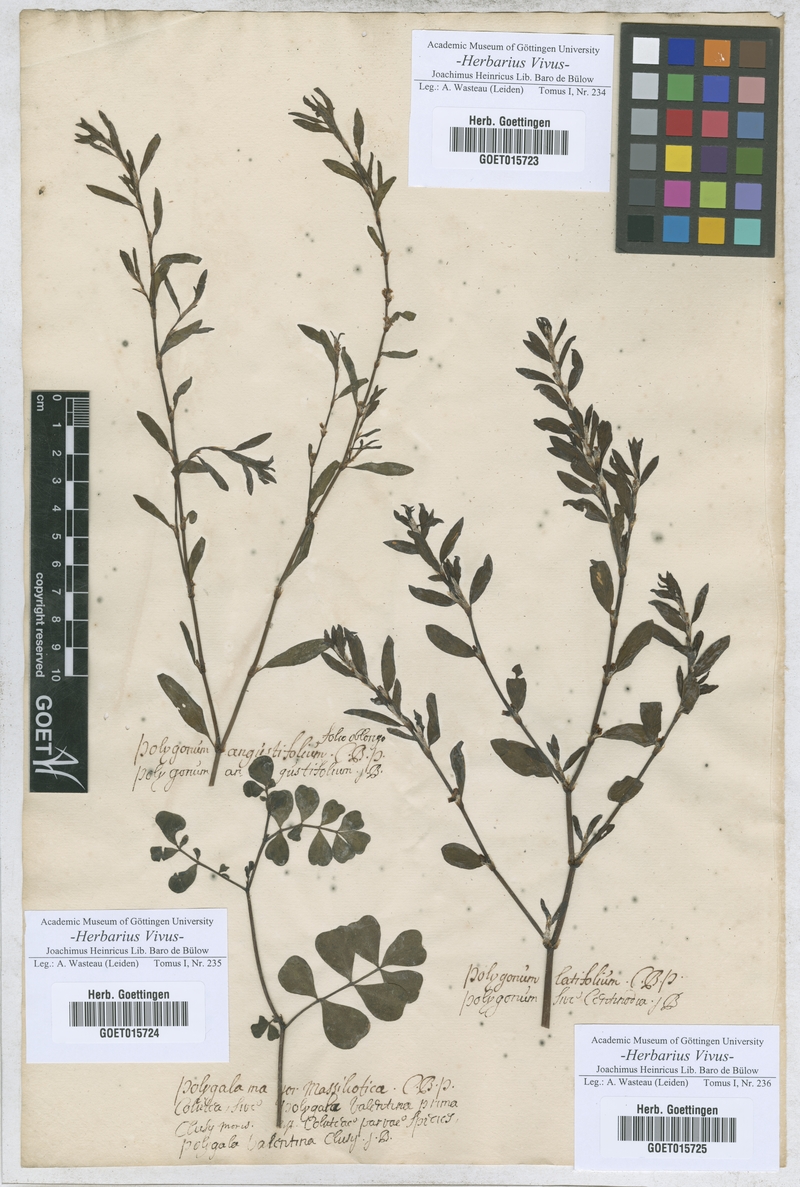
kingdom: Plantae
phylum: Tracheophyta
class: Magnoliopsida
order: Caryophyllales
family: Polygonaceae
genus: Polygonum
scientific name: Polygonum aviculare
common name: Prostrate knotweed
